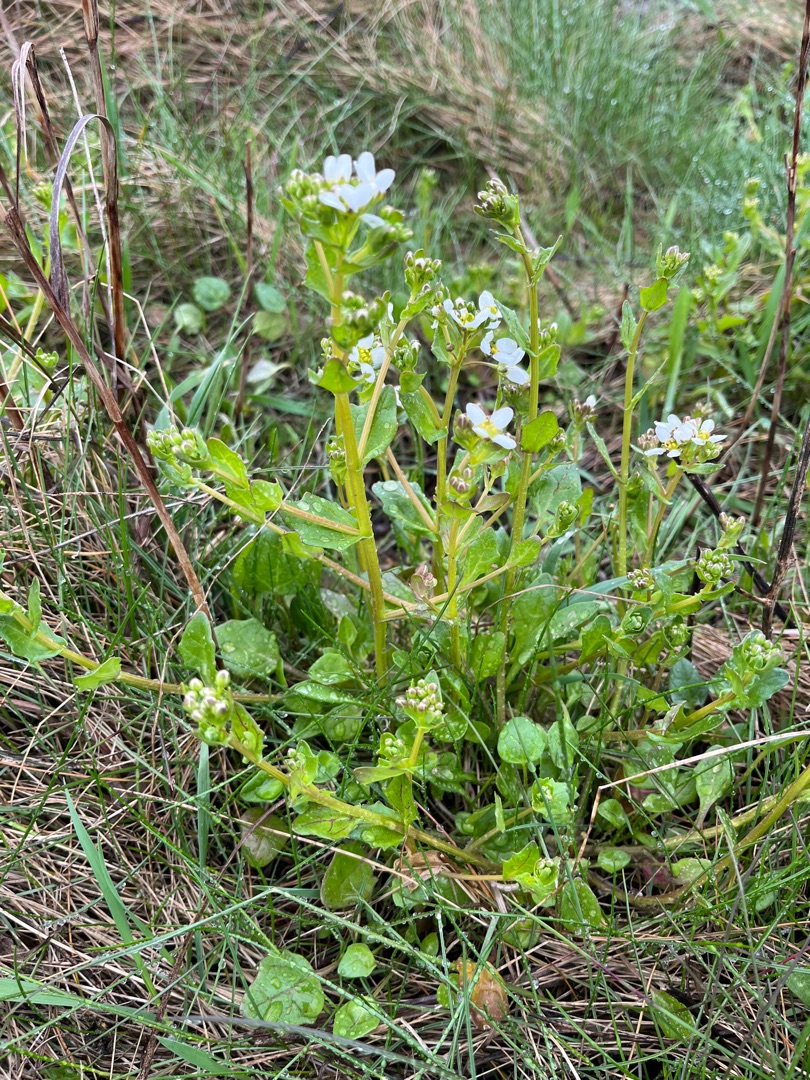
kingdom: Plantae
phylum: Tracheophyta
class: Magnoliopsida
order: Brassicales
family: Brassicaceae
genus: Cochlearia
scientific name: Cochlearia anglica
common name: Engelsk kokleare
